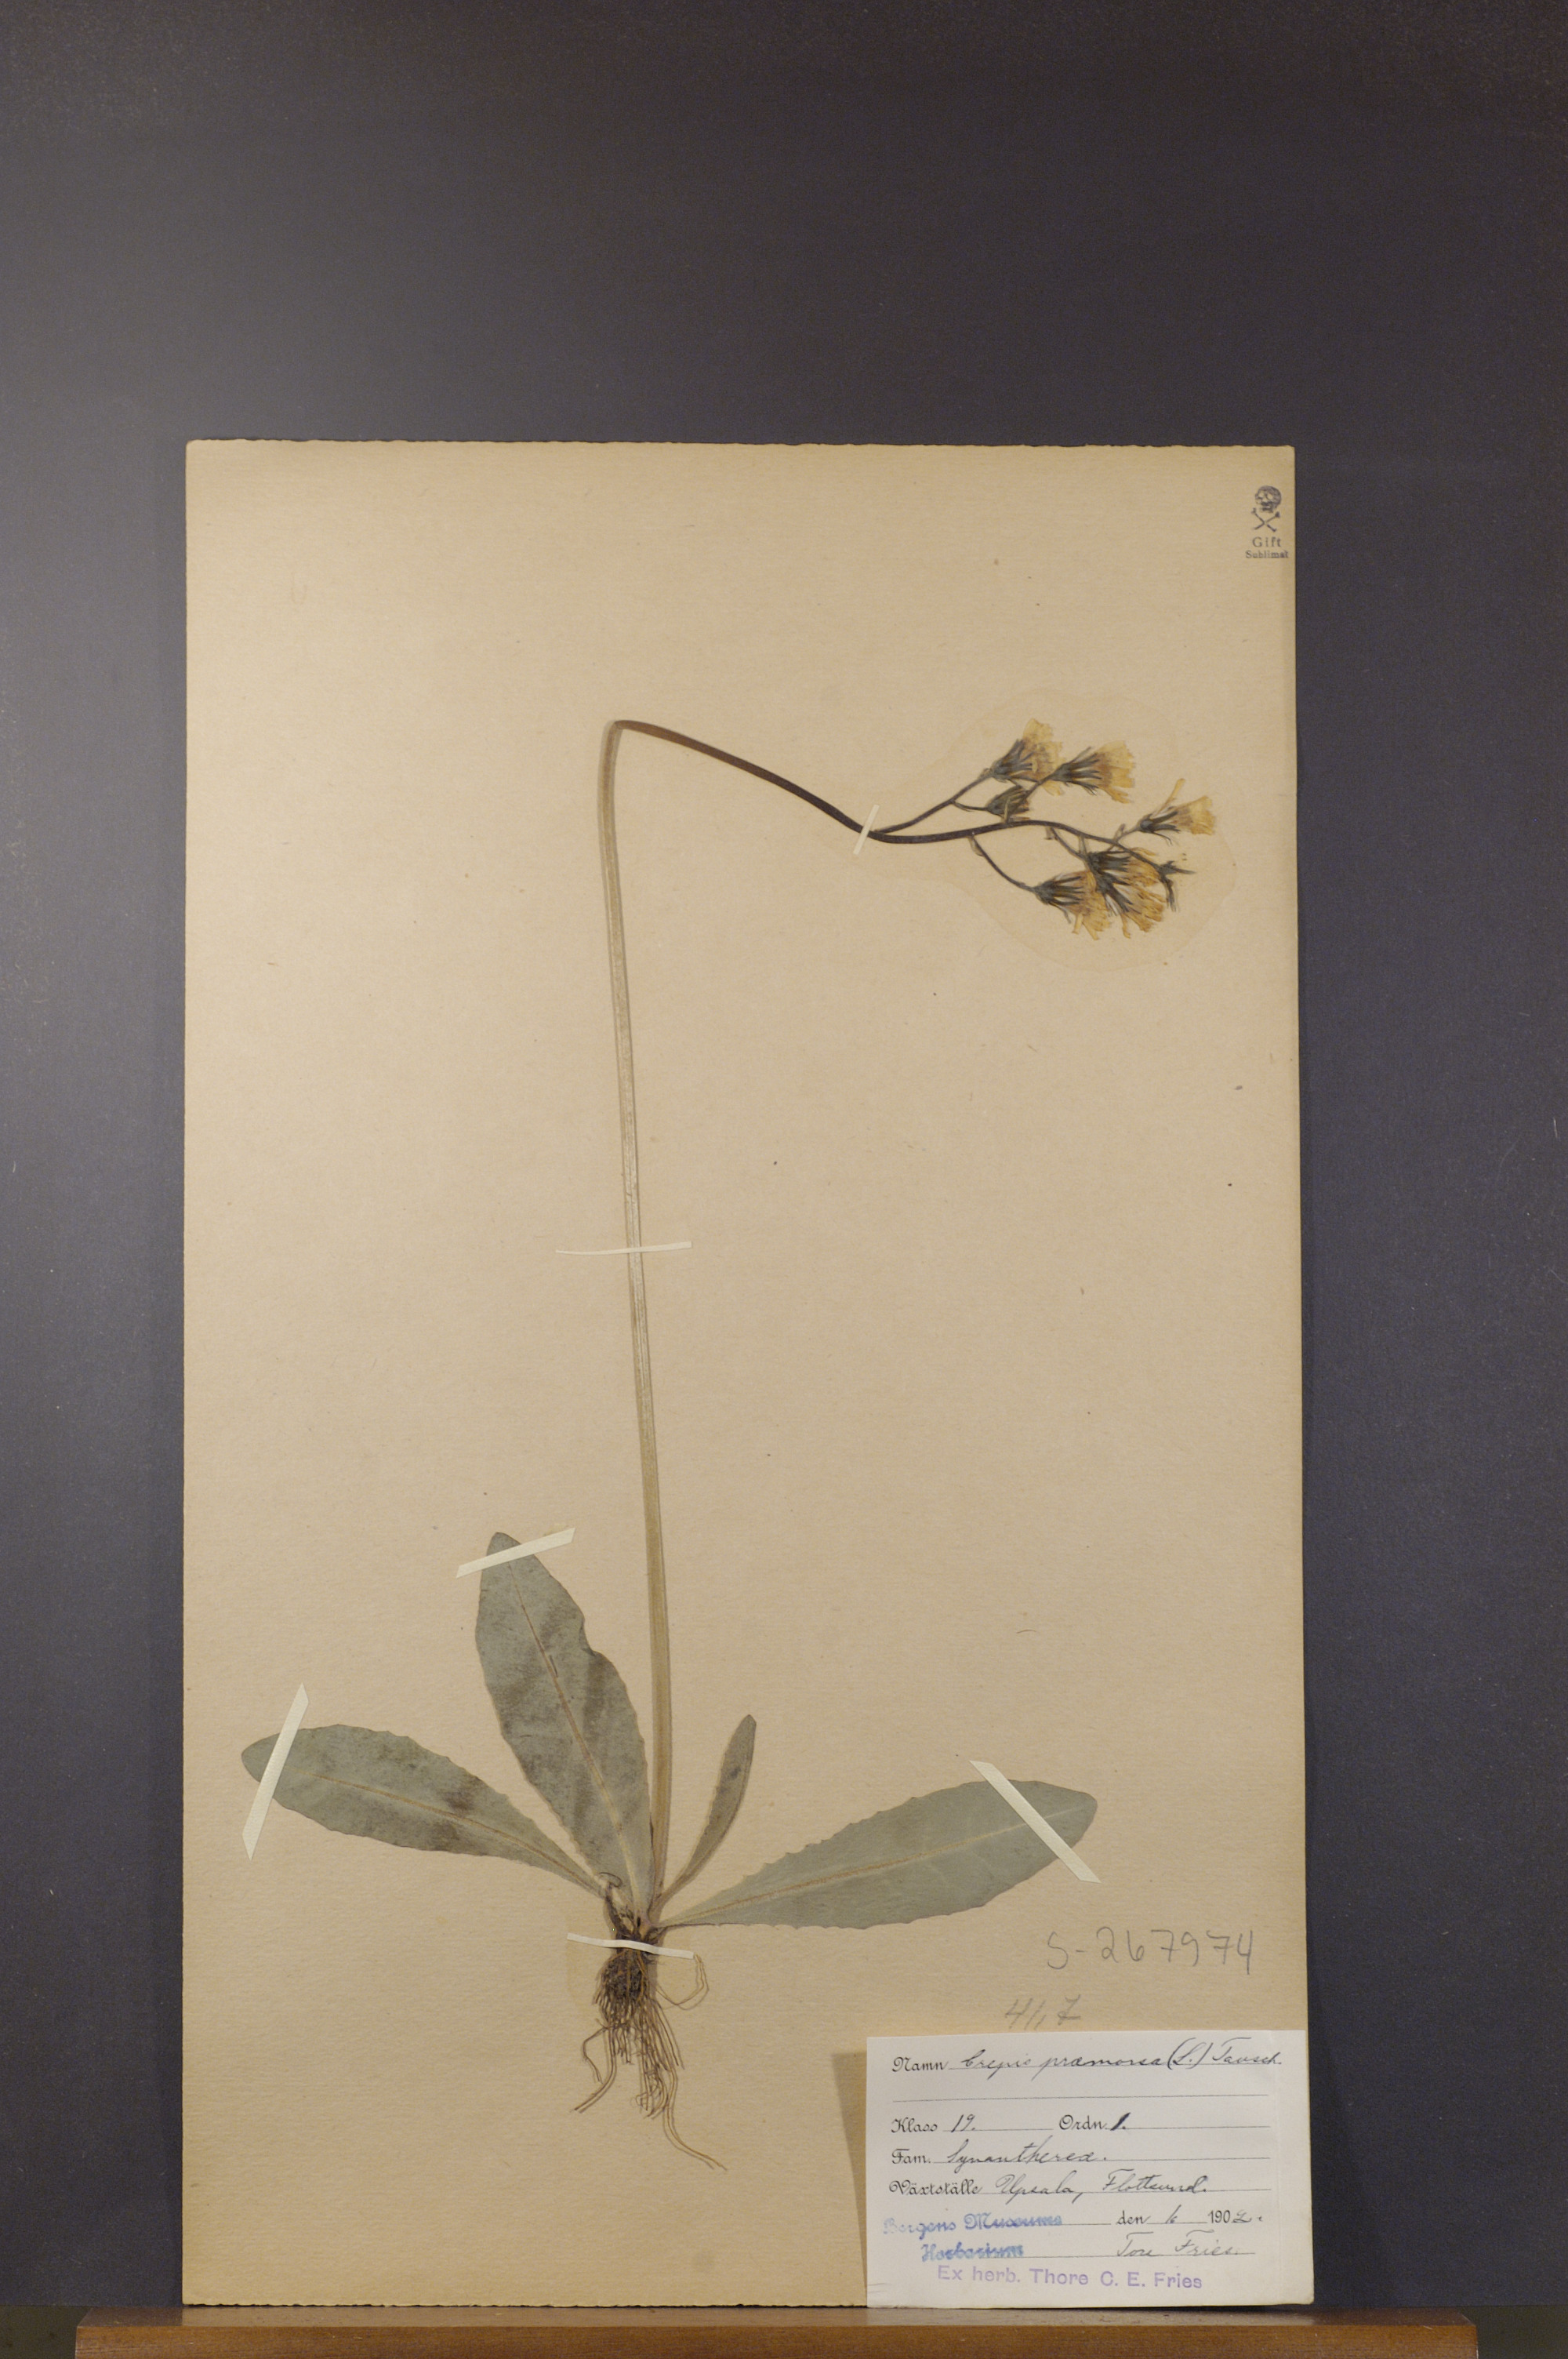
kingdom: Plantae
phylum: Tracheophyta
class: Magnoliopsida
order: Asterales
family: Asteraceae
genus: Crepis
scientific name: Crepis praemorsa
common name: Leafless hawk's-beard
